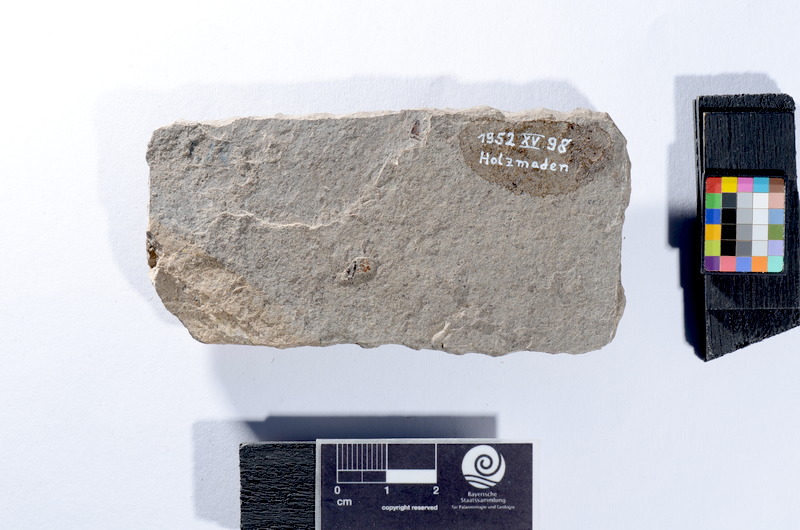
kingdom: Animalia
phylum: Chordata
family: Leptolepididae
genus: Leptolepis
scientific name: Leptolepis coryphaenoides
